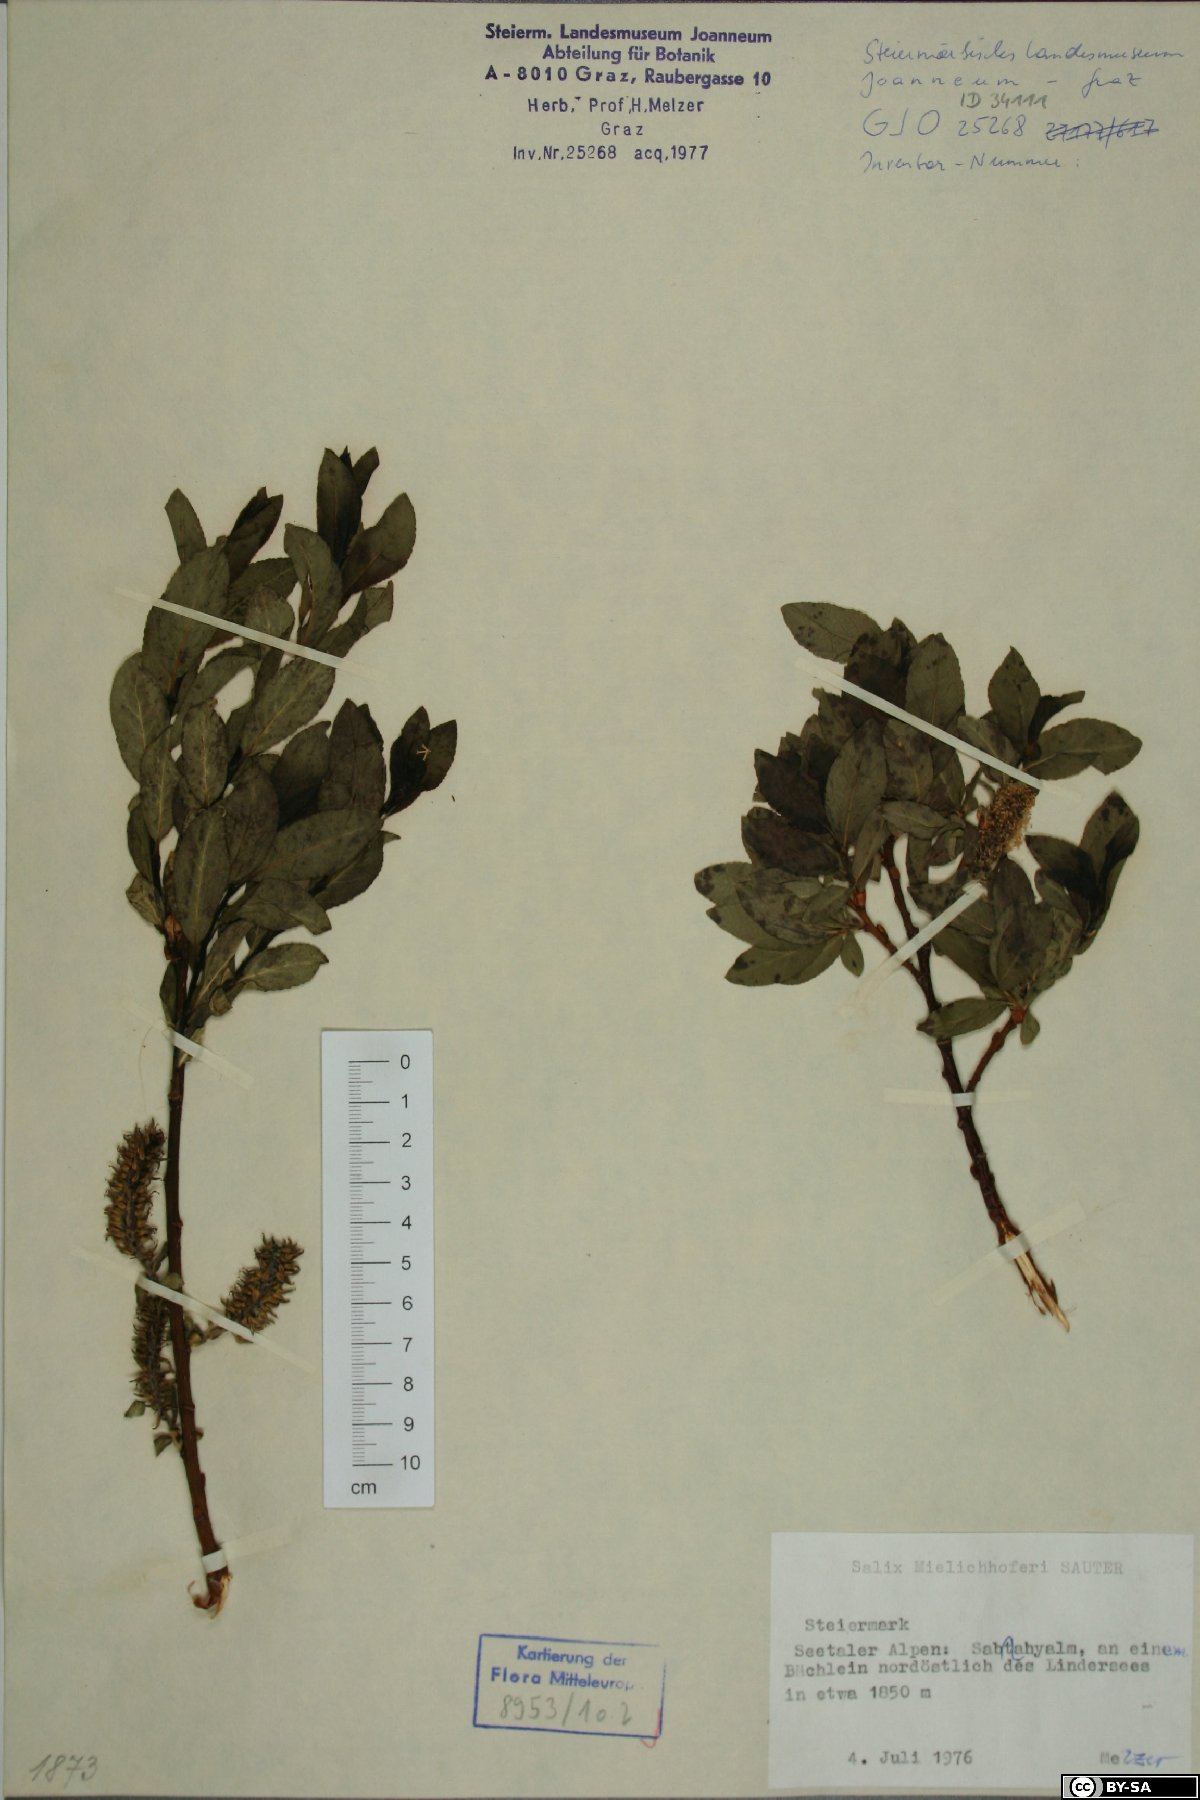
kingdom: Plantae
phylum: Tracheophyta
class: Magnoliopsida
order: Malpighiales
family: Salicaceae
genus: Salix
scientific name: Salix mielichhoferi
